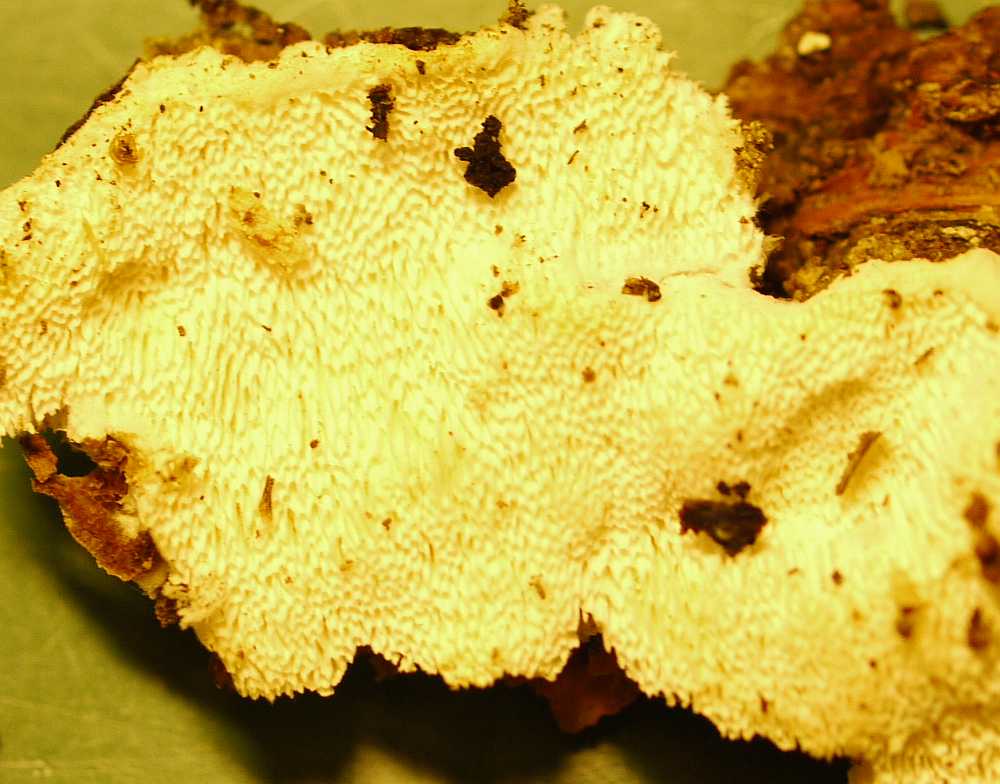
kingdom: Fungi
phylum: Basidiomycota
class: Agaricomycetes
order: Polyporales
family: Gelatoporiaceae
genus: Cinereomyces
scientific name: Cinereomyces lindbladii
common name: almindelig gråporesvamp
